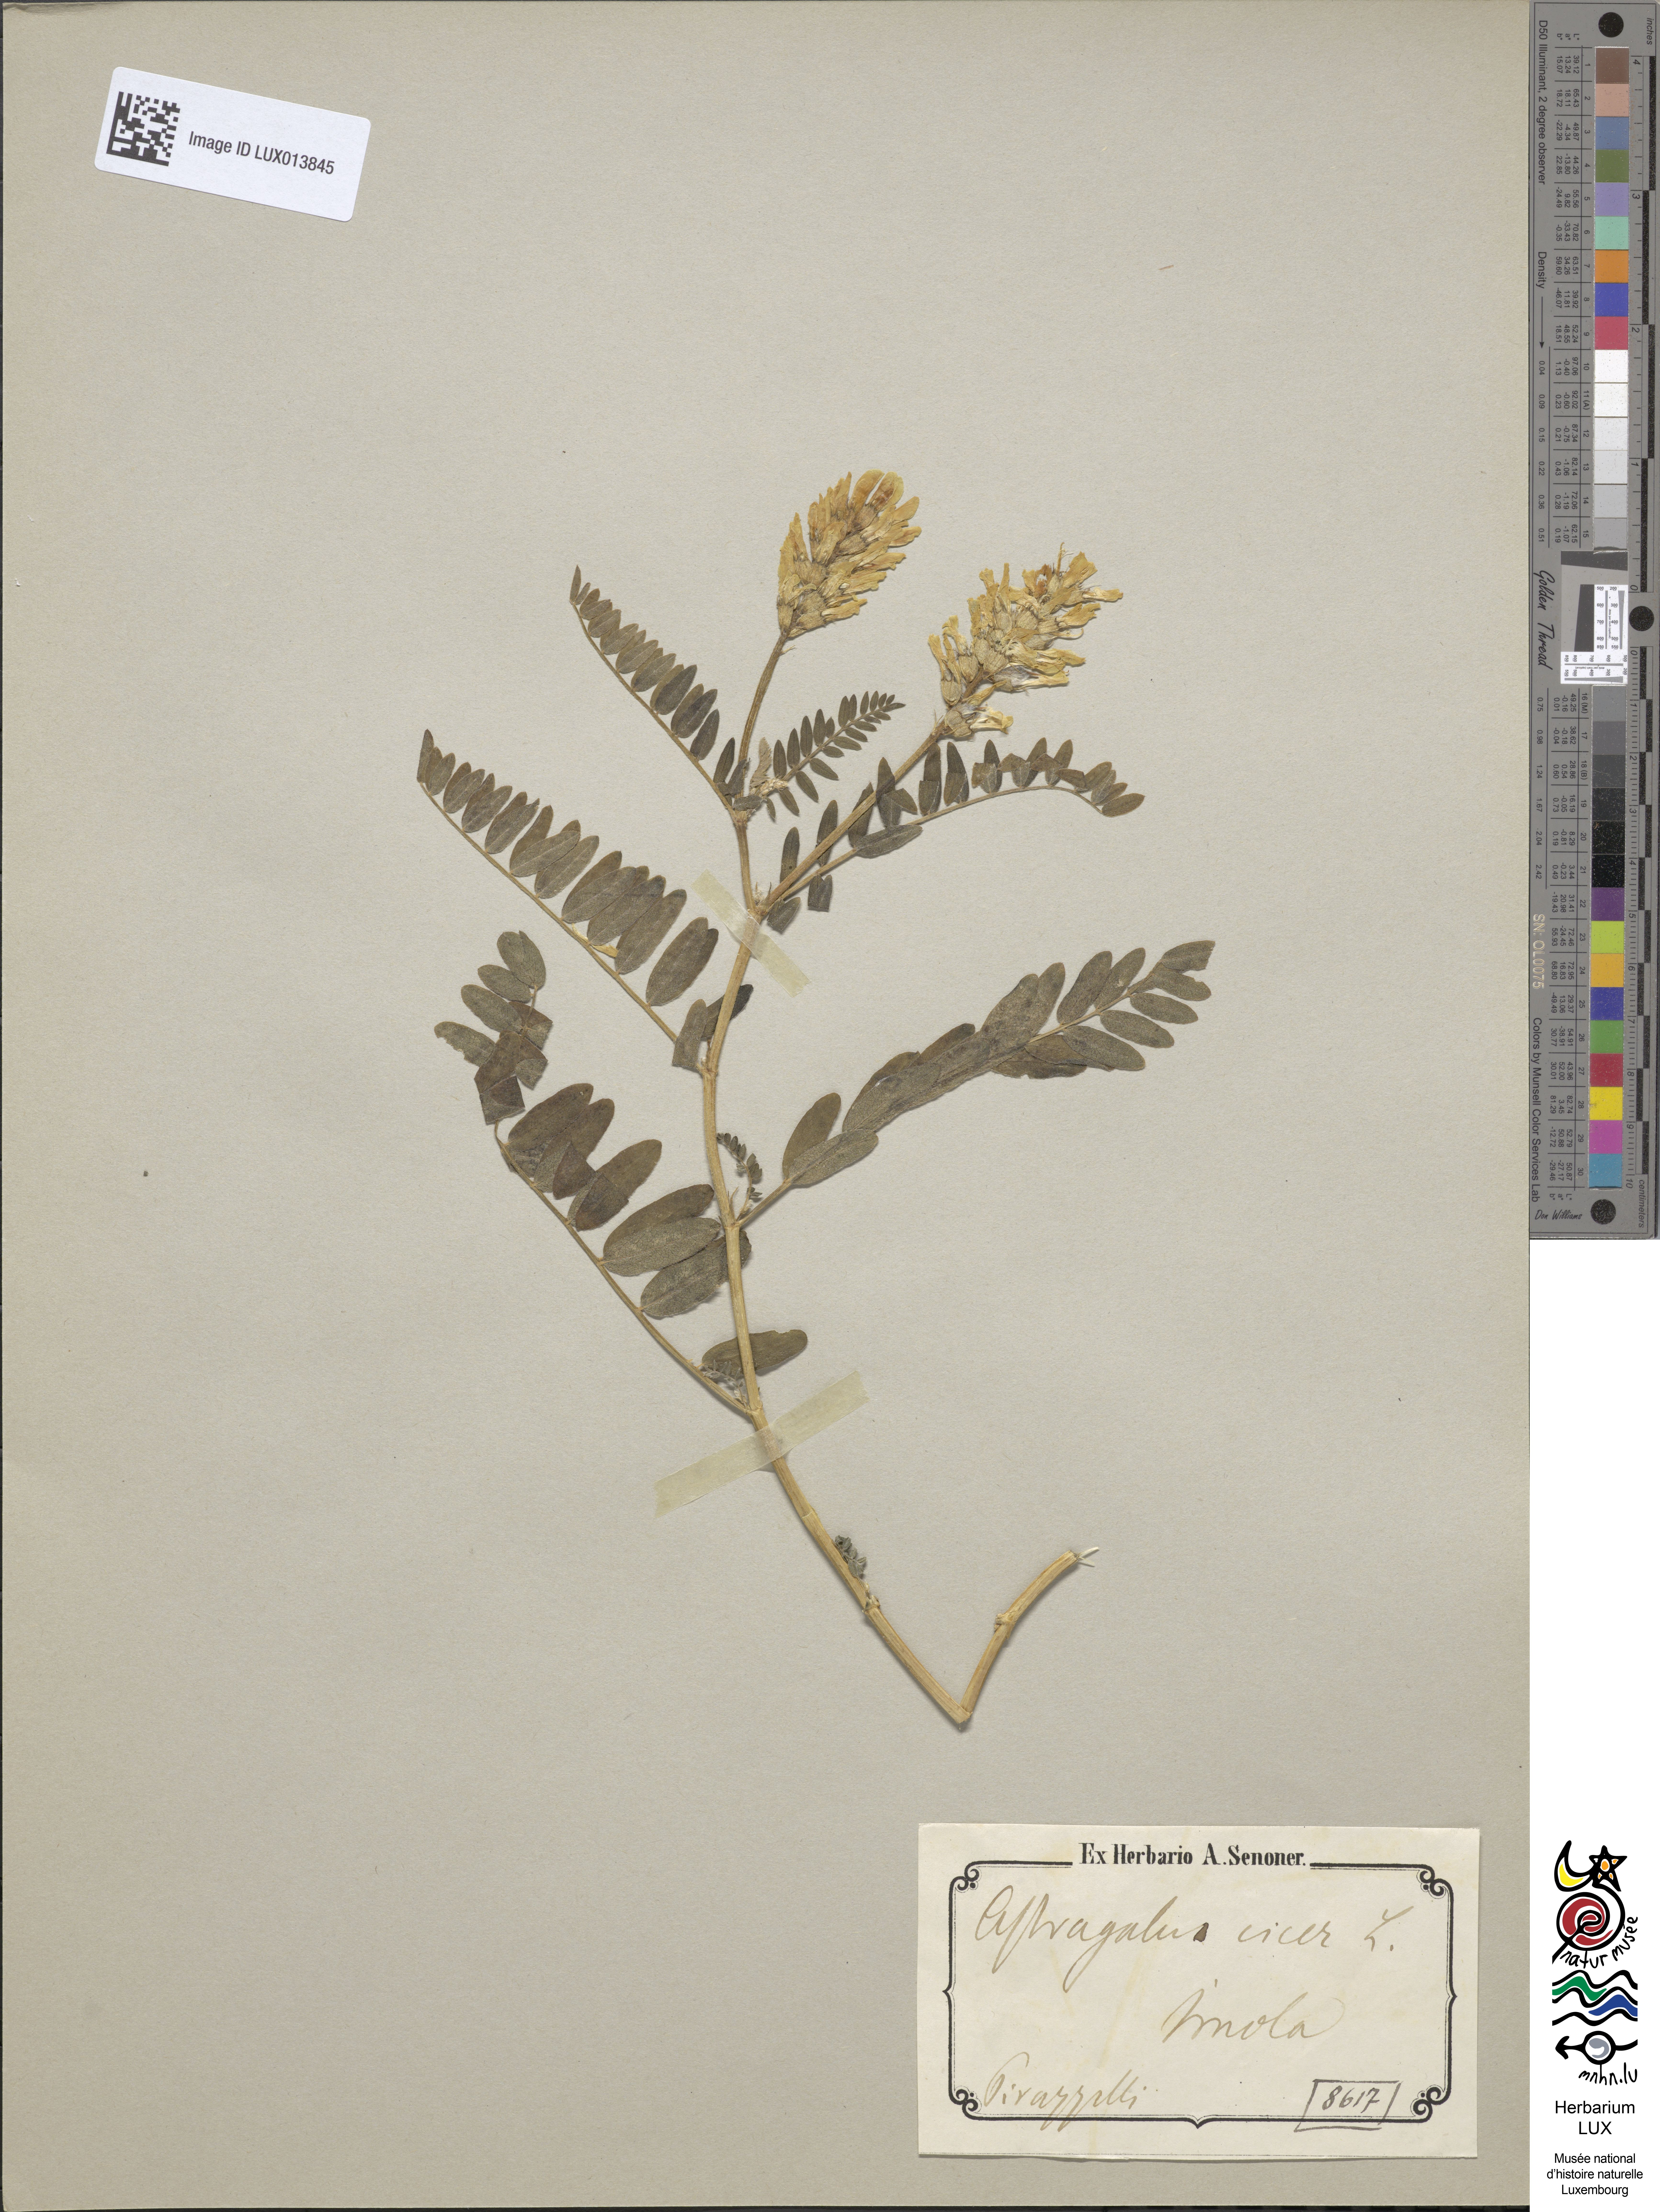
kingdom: Plantae
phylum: Tracheophyta
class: Magnoliopsida
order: Fabales
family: Fabaceae
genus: Astragalus
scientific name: Astragalus cicer
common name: Chick-pea milk-vetch
